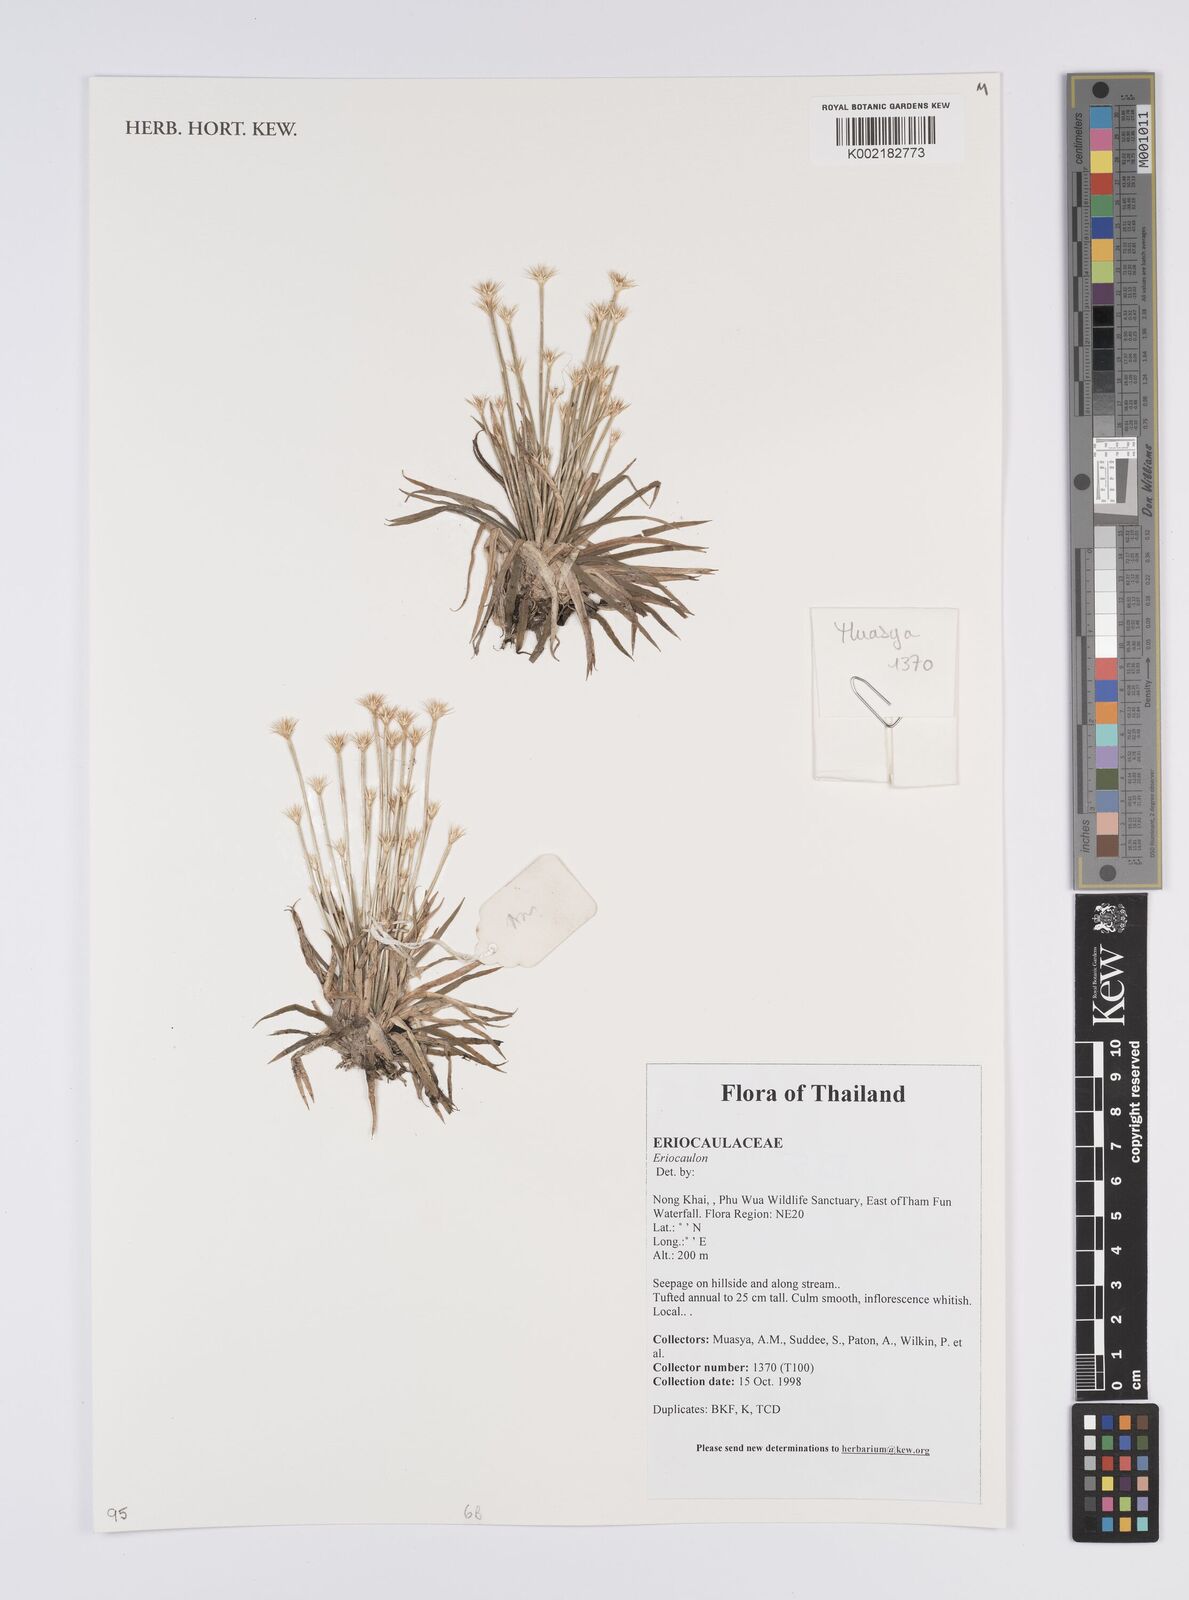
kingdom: Plantae
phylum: Tracheophyta
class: Liliopsida
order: Poales
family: Eriocaulaceae
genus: Eriocaulon
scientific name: Eriocaulon
